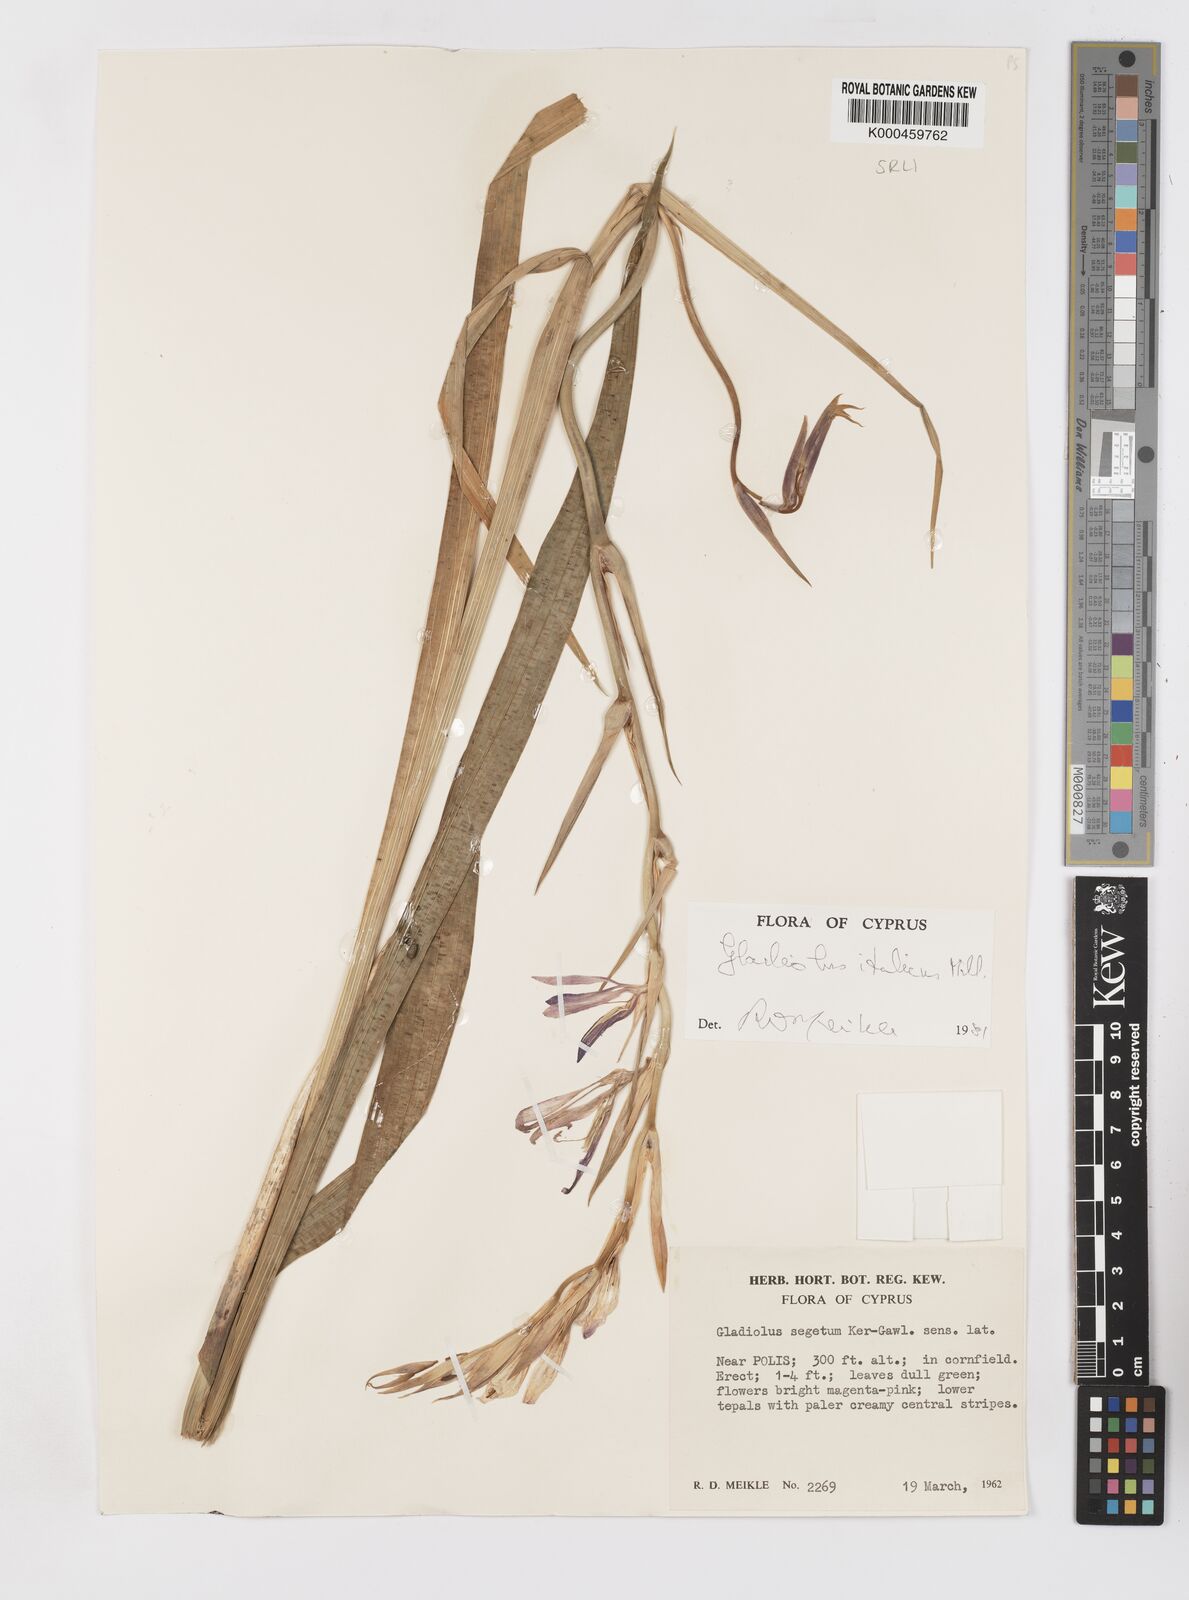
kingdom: Plantae
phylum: Tracheophyta
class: Liliopsida
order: Asparagales
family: Iridaceae
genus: Gladiolus
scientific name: Gladiolus italicus
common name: Field gladiolus
